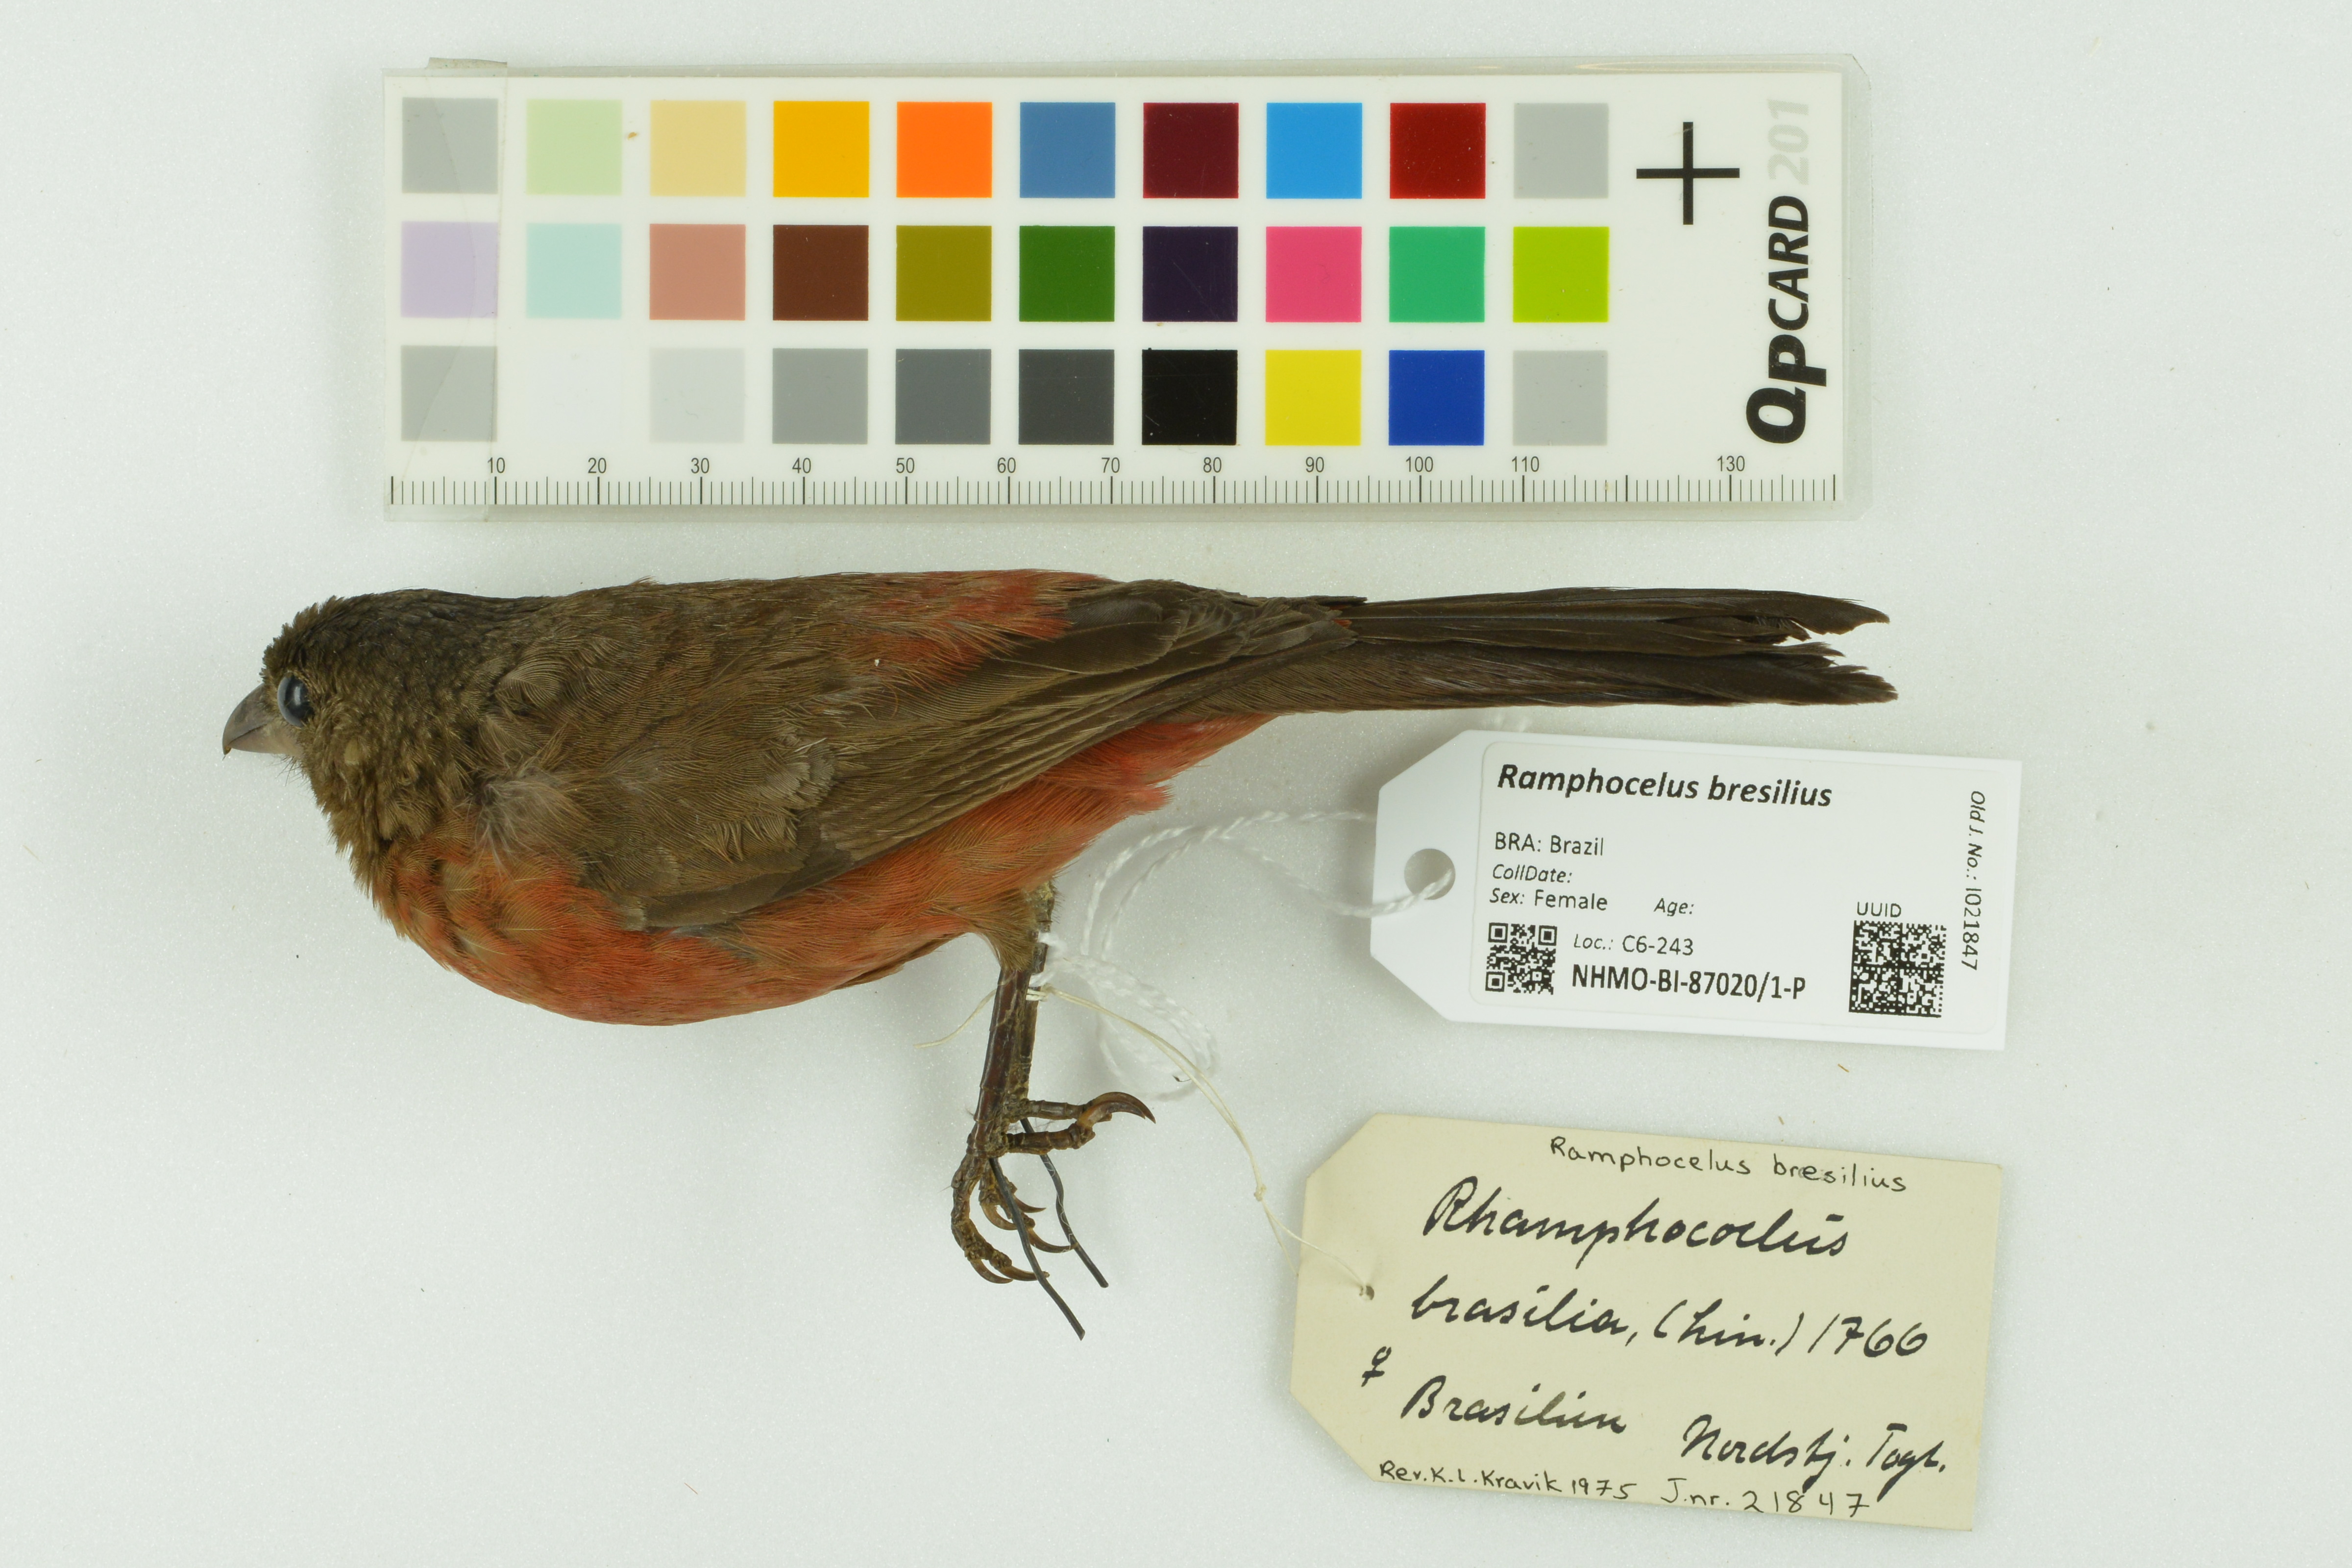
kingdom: Animalia
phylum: Chordata
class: Aves
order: Passeriformes
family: Thraupidae
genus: Ramphocelus
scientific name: Ramphocelus bresilia
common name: Brazilian tanager
